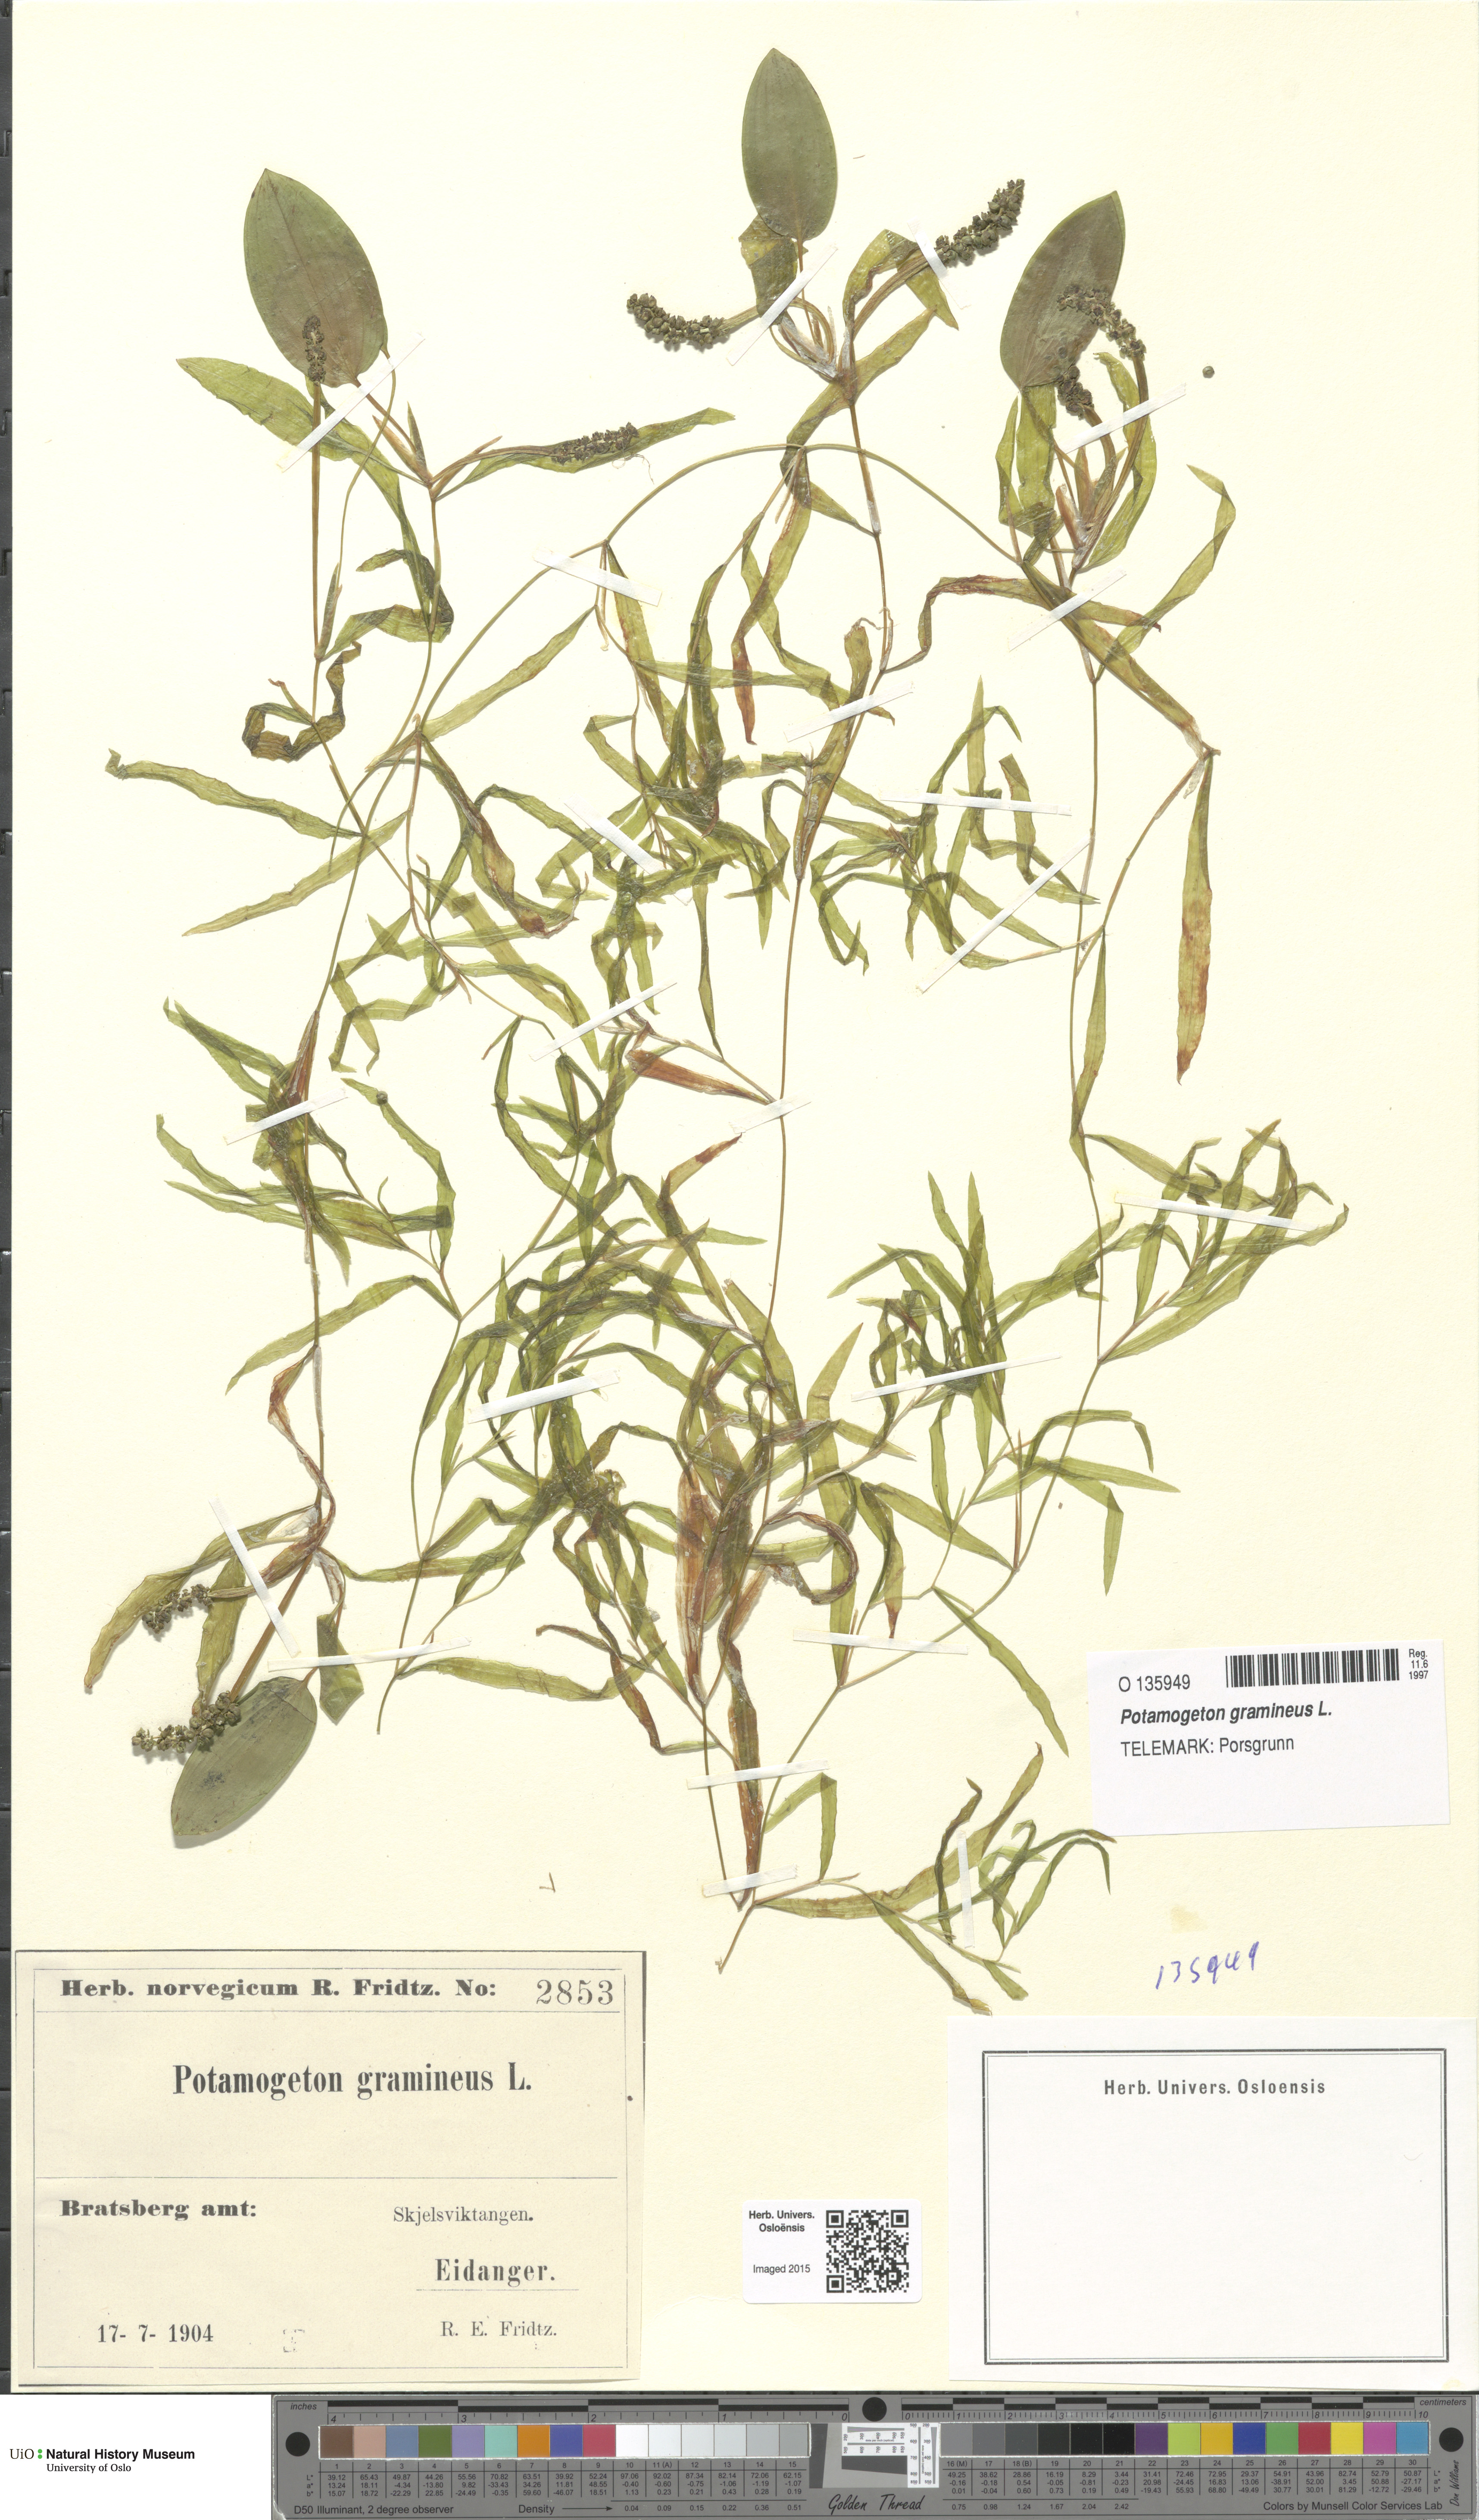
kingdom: Plantae
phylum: Tracheophyta
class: Liliopsida
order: Alismatales
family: Potamogetonaceae
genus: Potamogeton
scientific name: Potamogeton gramineus
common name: Various-leaved pondweed
